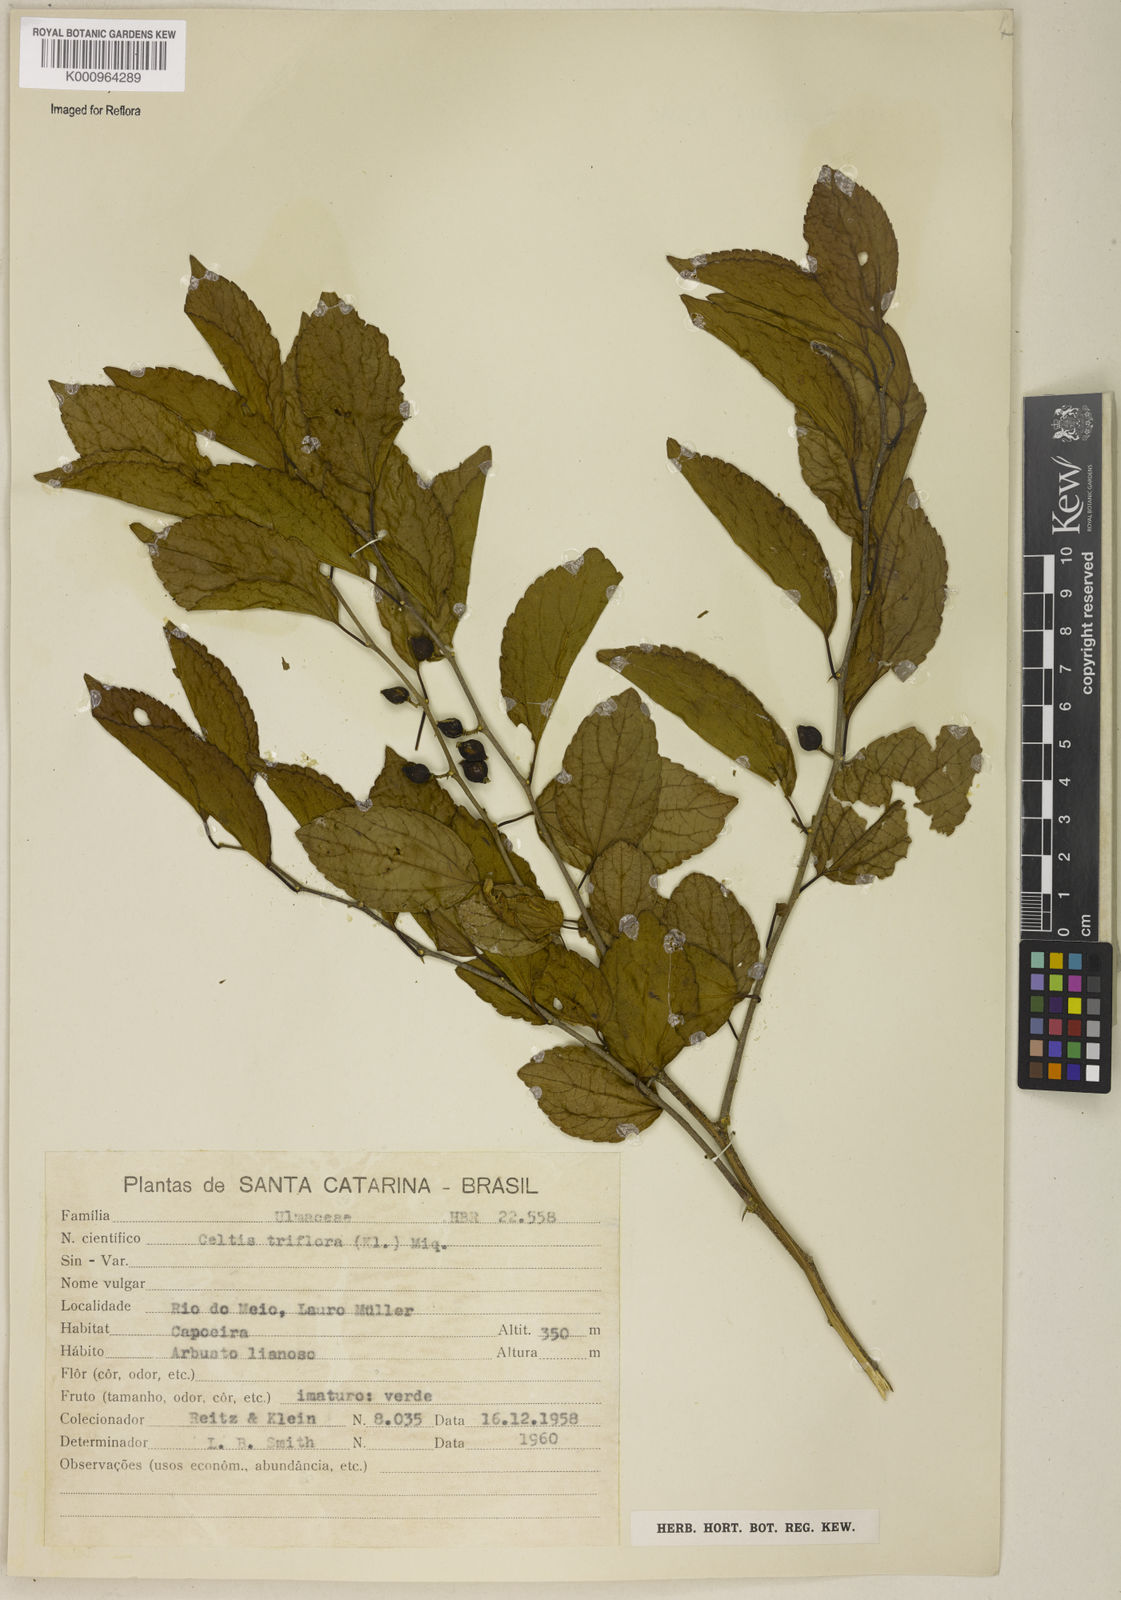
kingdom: Plantae
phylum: Tracheophyta
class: Magnoliopsida
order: Rosales
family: Cannabaceae
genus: Celtis
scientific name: Celtis iguanaea
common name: Iguana hackberry
